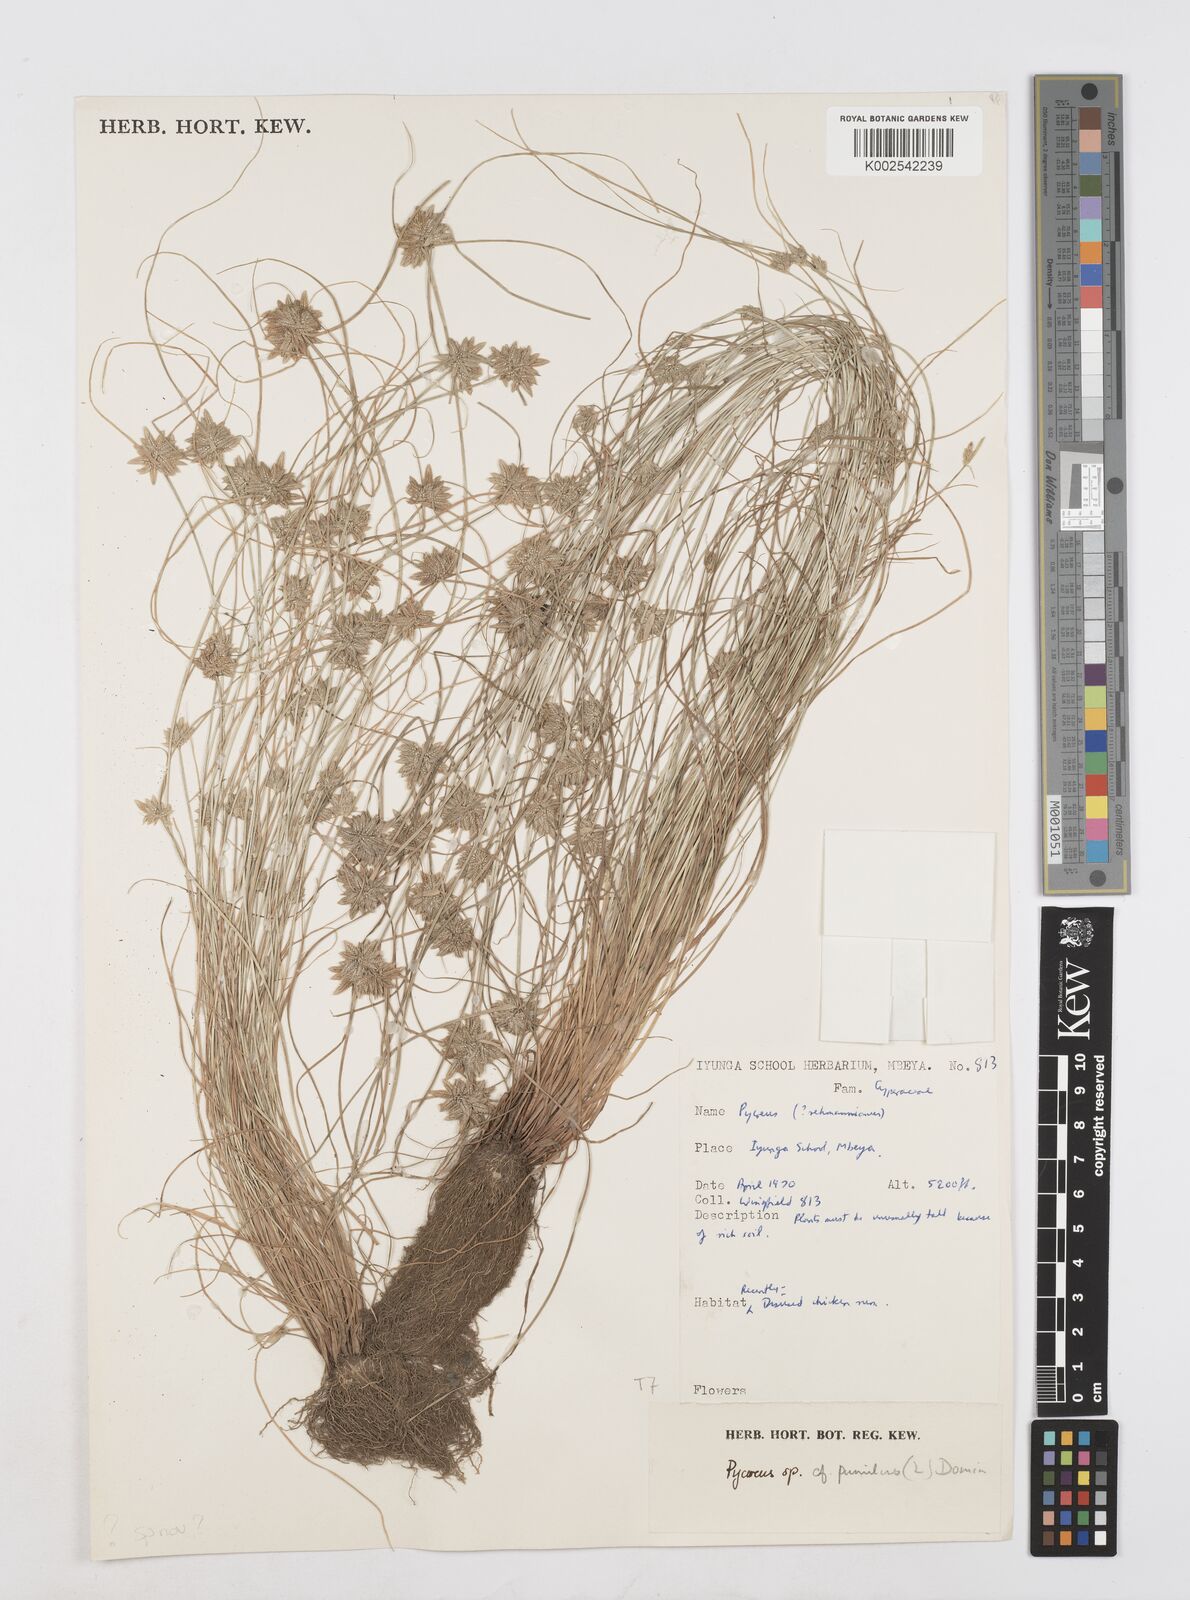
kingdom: Plantae
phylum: Tracheophyta
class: Liliopsida
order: Poales
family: Cyperaceae
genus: Cyperus
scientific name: Cyperus
